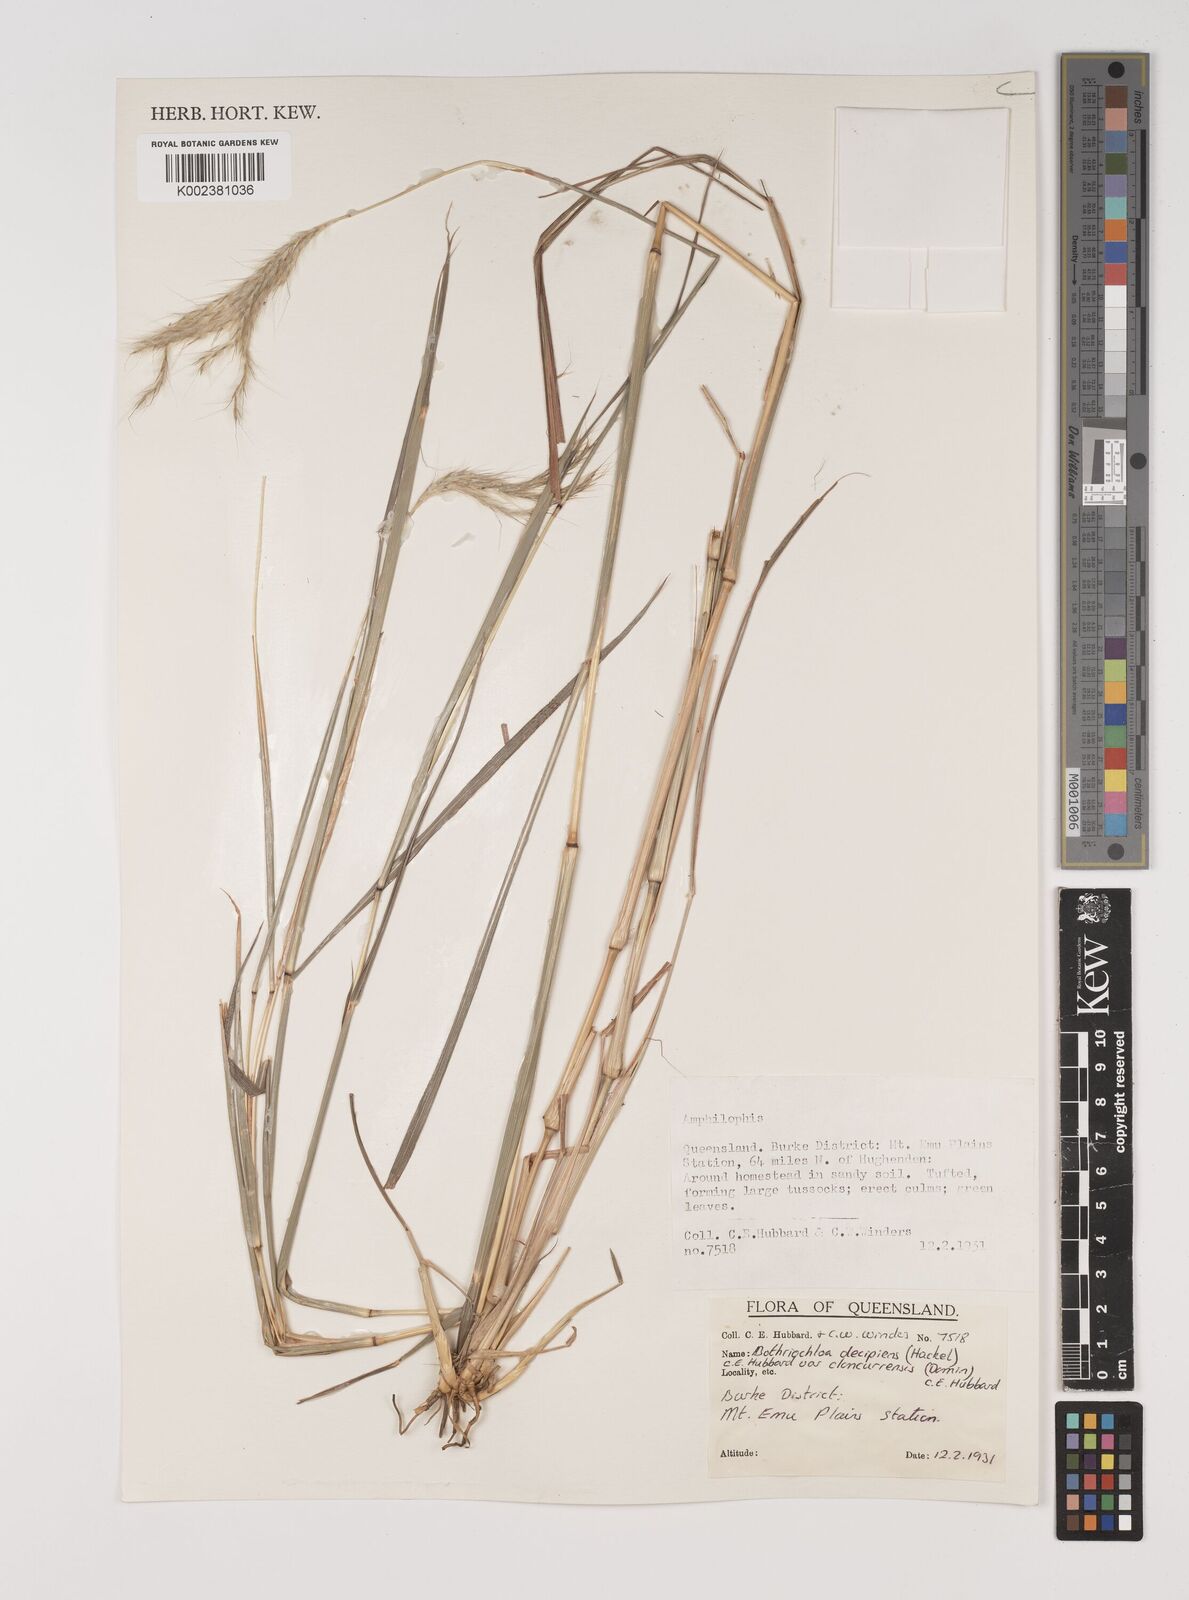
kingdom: Plantae
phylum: Tracheophyta
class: Liliopsida
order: Poales
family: Poaceae
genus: Bothriochloa
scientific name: Bothriochloa decipiens
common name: Pitted-bluegrass
